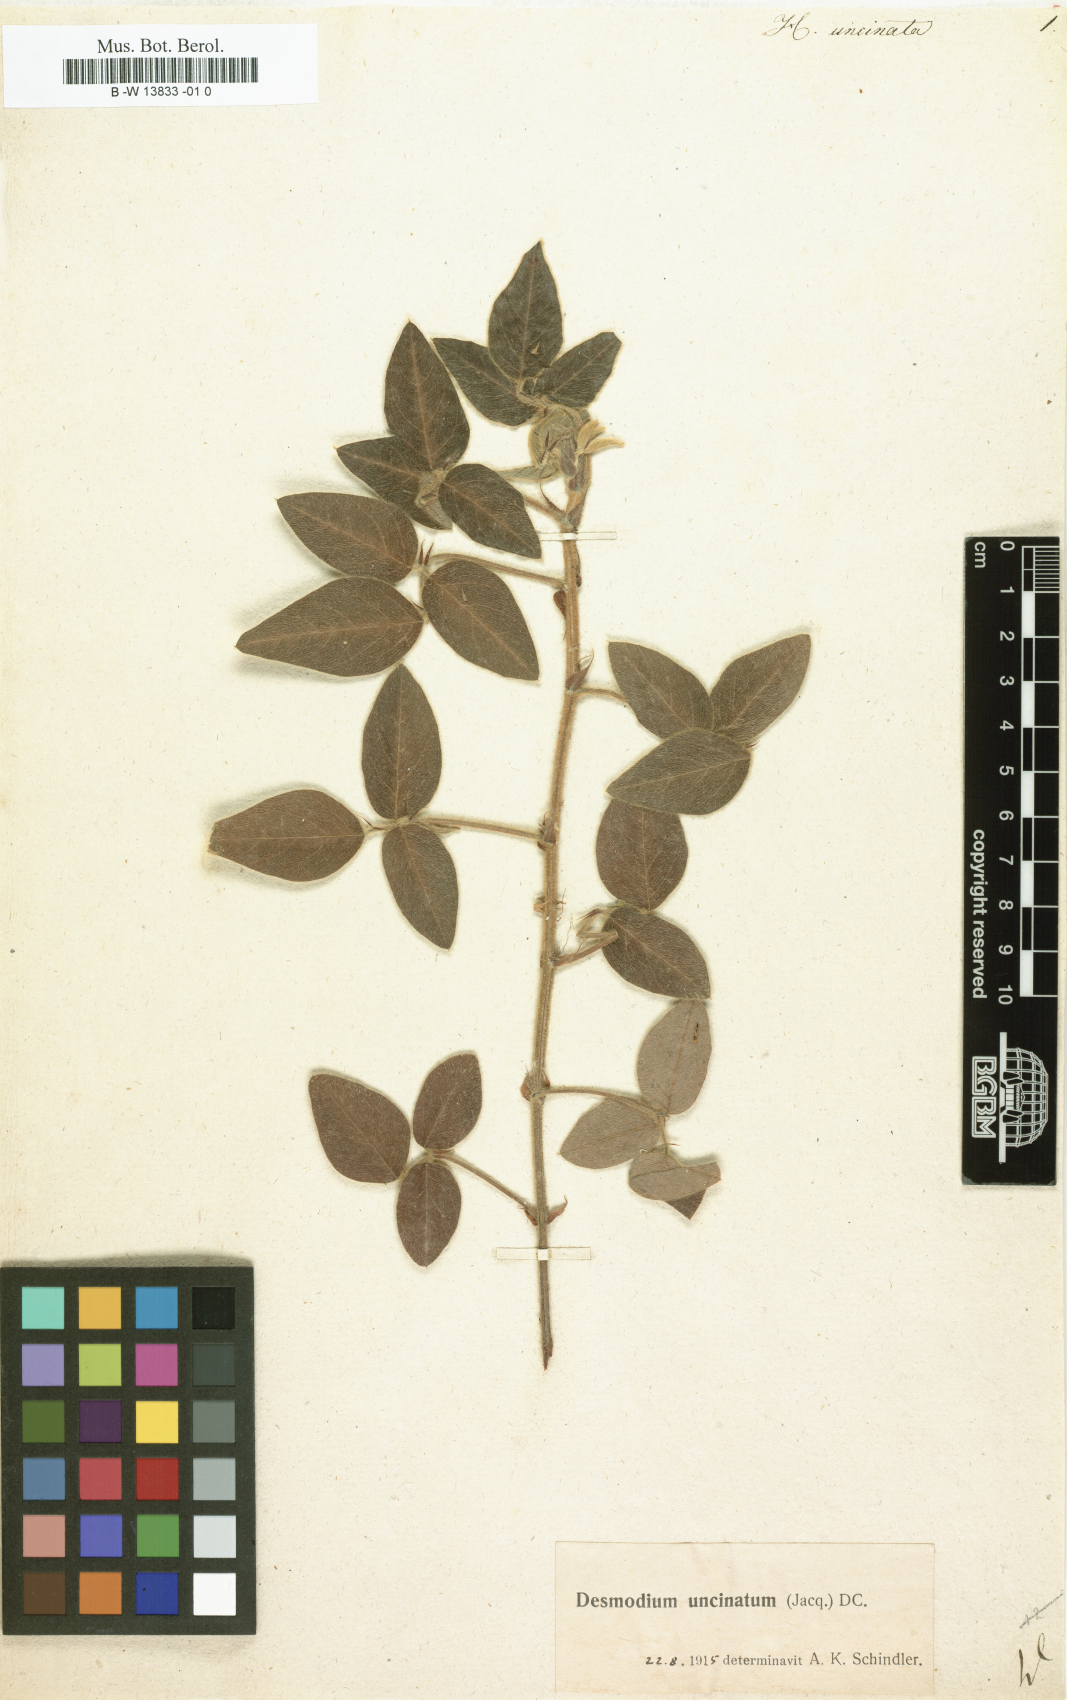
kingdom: Plantae
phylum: Tracheophyta
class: Magnoliopsida
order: Fabales
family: Fabaceae
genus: Desmodium
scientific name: Desmodium uncinatum
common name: Silverleaf desmodium
